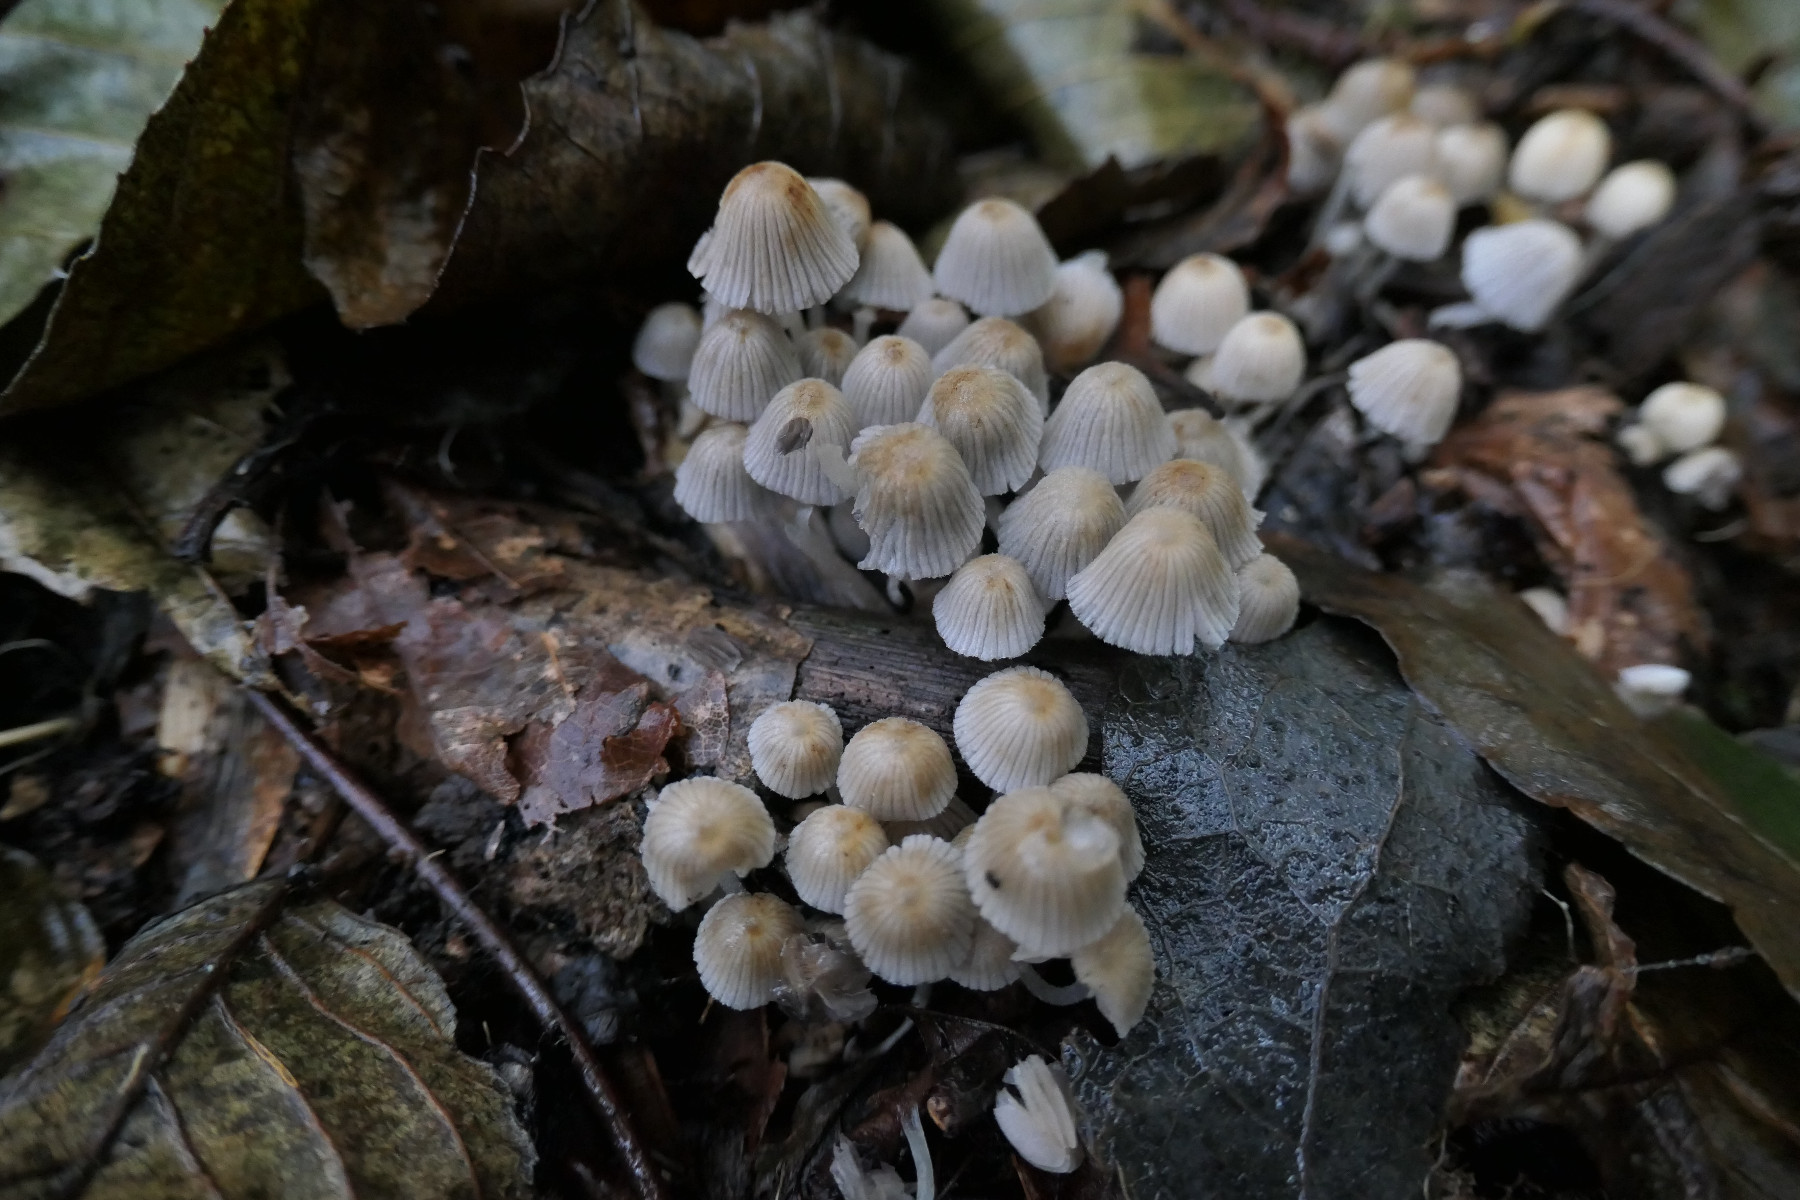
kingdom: Fungi
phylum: Basidiomycota
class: Agaricomycetes
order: Agaricales
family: Psathyrellaceae
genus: Coprinellus
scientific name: Coprinellus disseminatus
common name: bredsået blækhat
